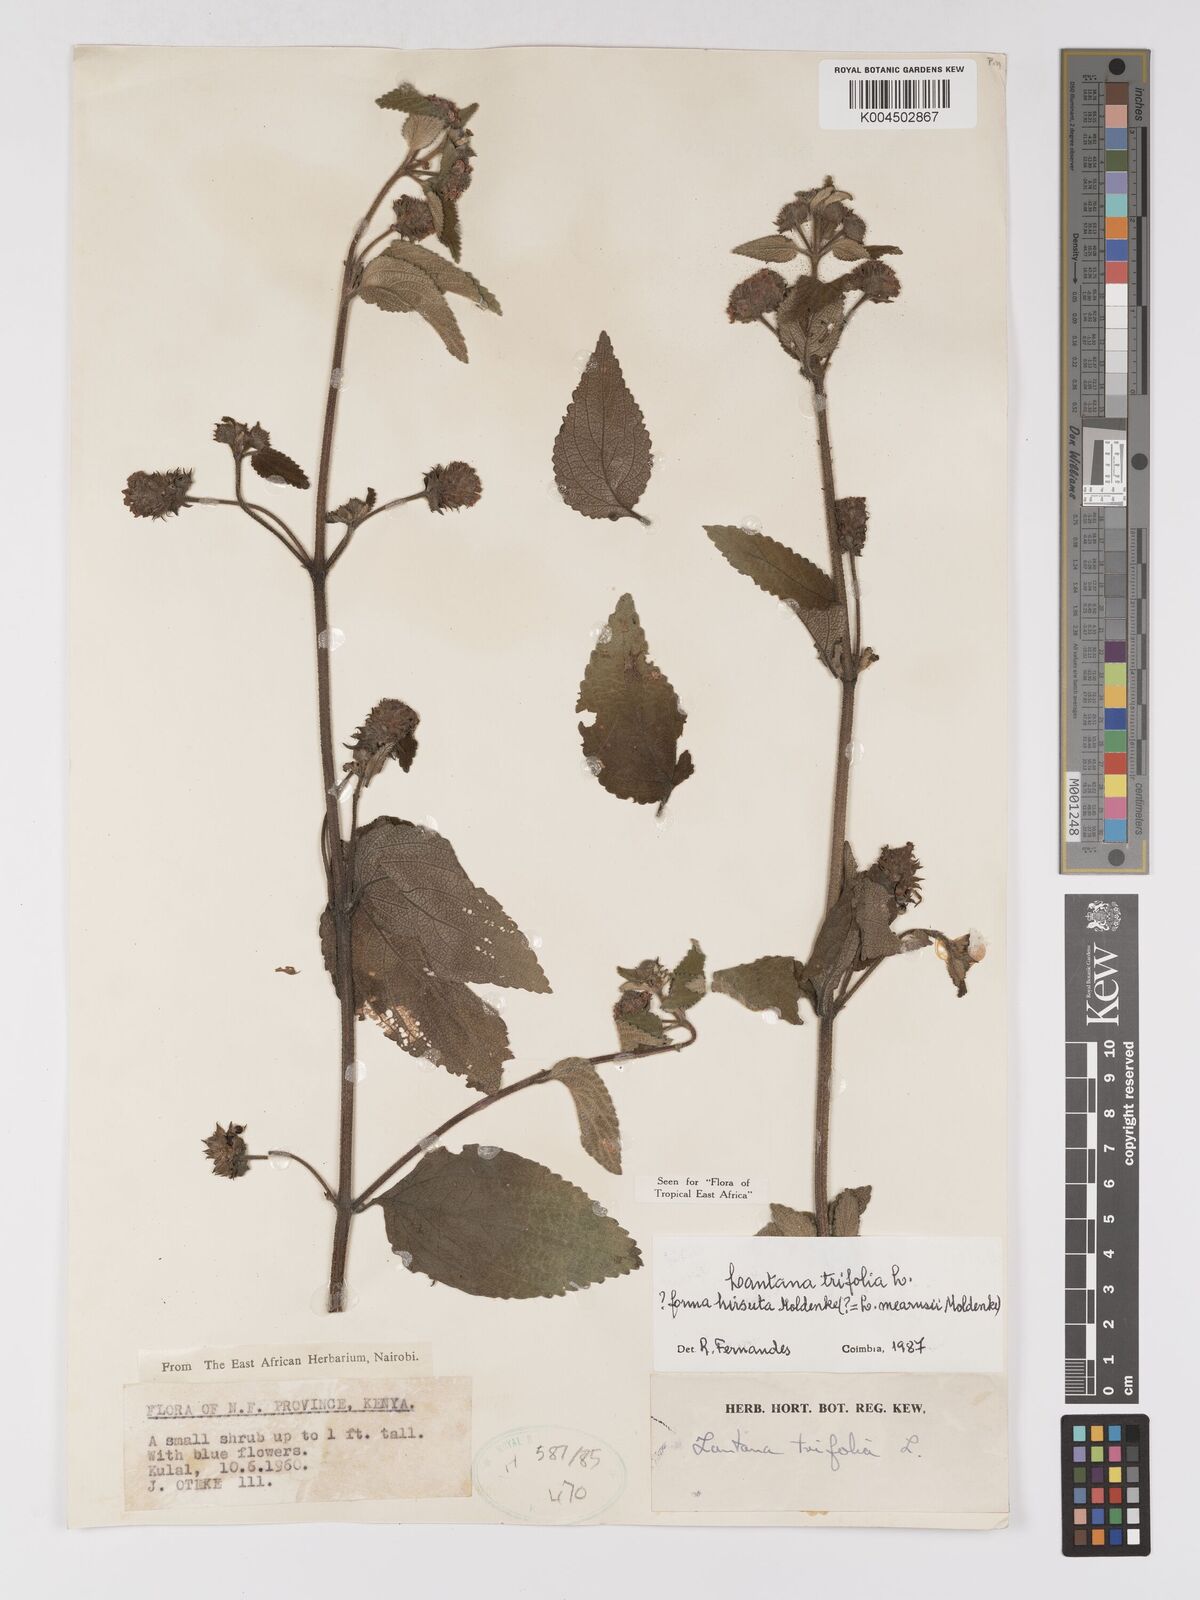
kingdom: Plantae
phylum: Tracheophyta
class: Magnoliopsida
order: Lamiales
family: Verbenaceae
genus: Lantana
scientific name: Lantana trifolia
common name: Sweet-sage
